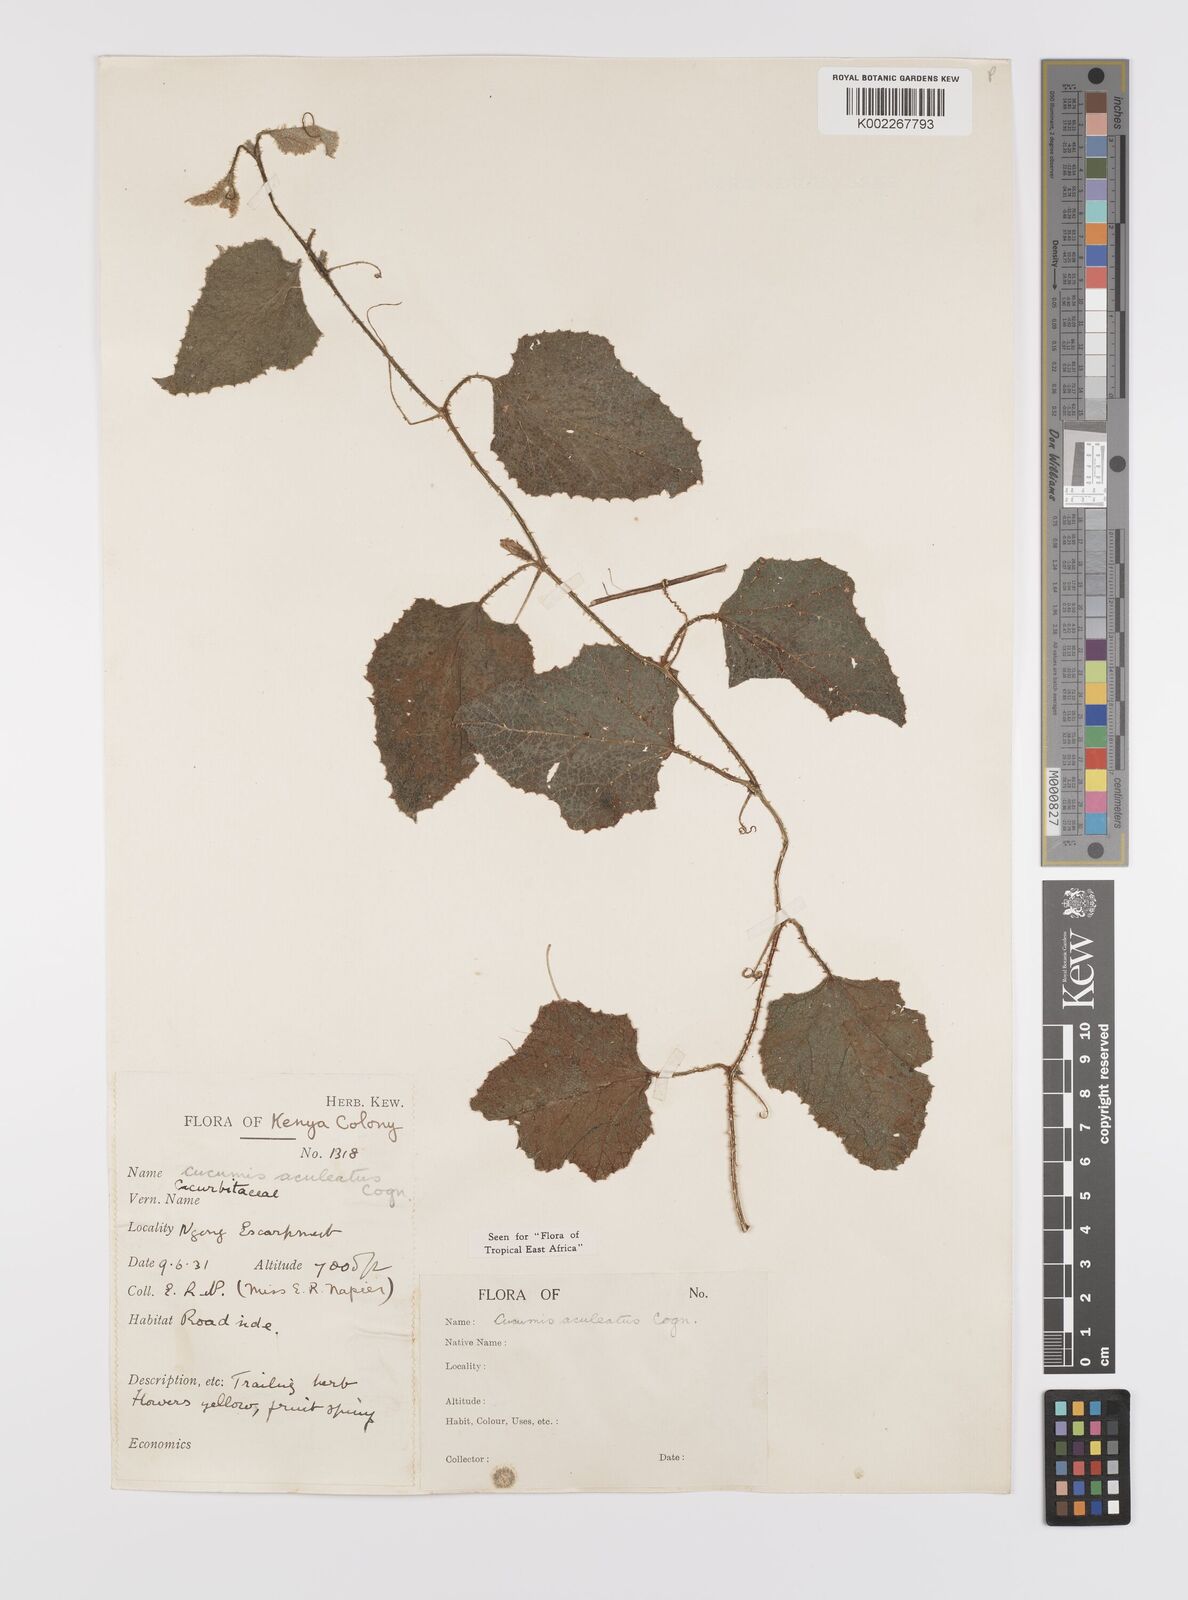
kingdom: Plantae
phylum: Tracheophyta
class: Magnoliopsida
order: Cucurbitales
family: Cucurbitaceae
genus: Cucumis
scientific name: Cucumis aculeatus
